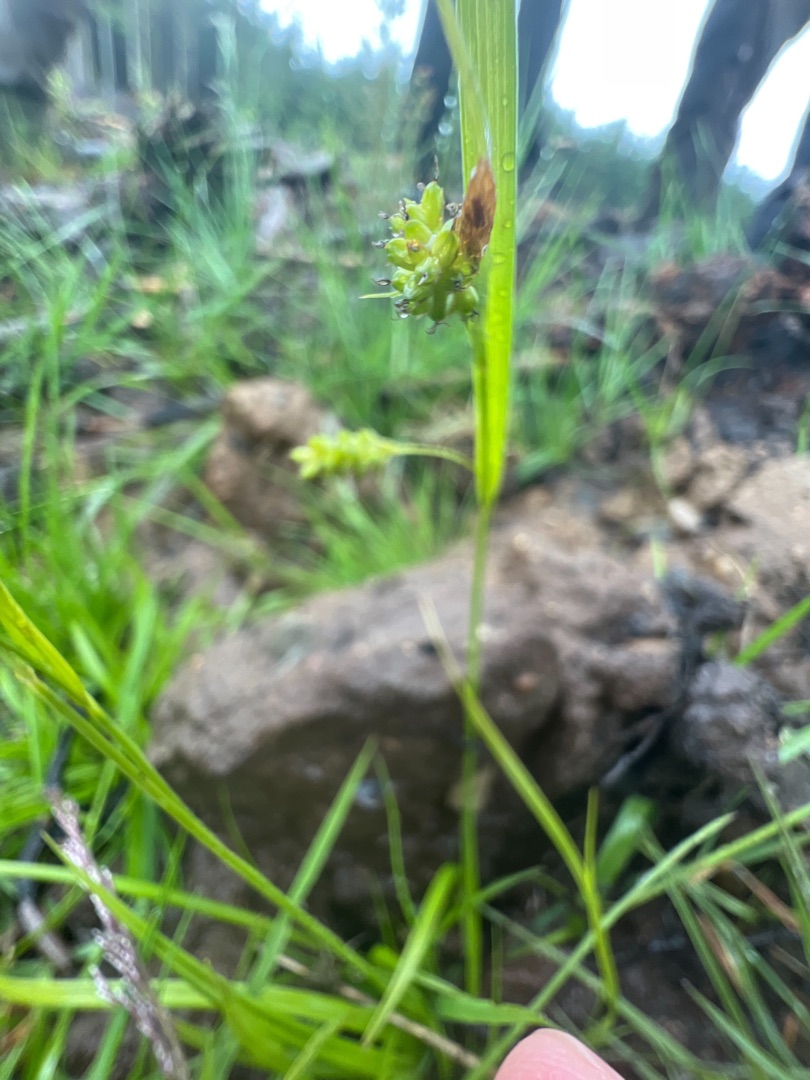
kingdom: Plantae
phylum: Tracheophyta
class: Liliopsida
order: Poales
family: Cyperaceae
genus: Carex
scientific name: Carex pallescens
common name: Bleg star
